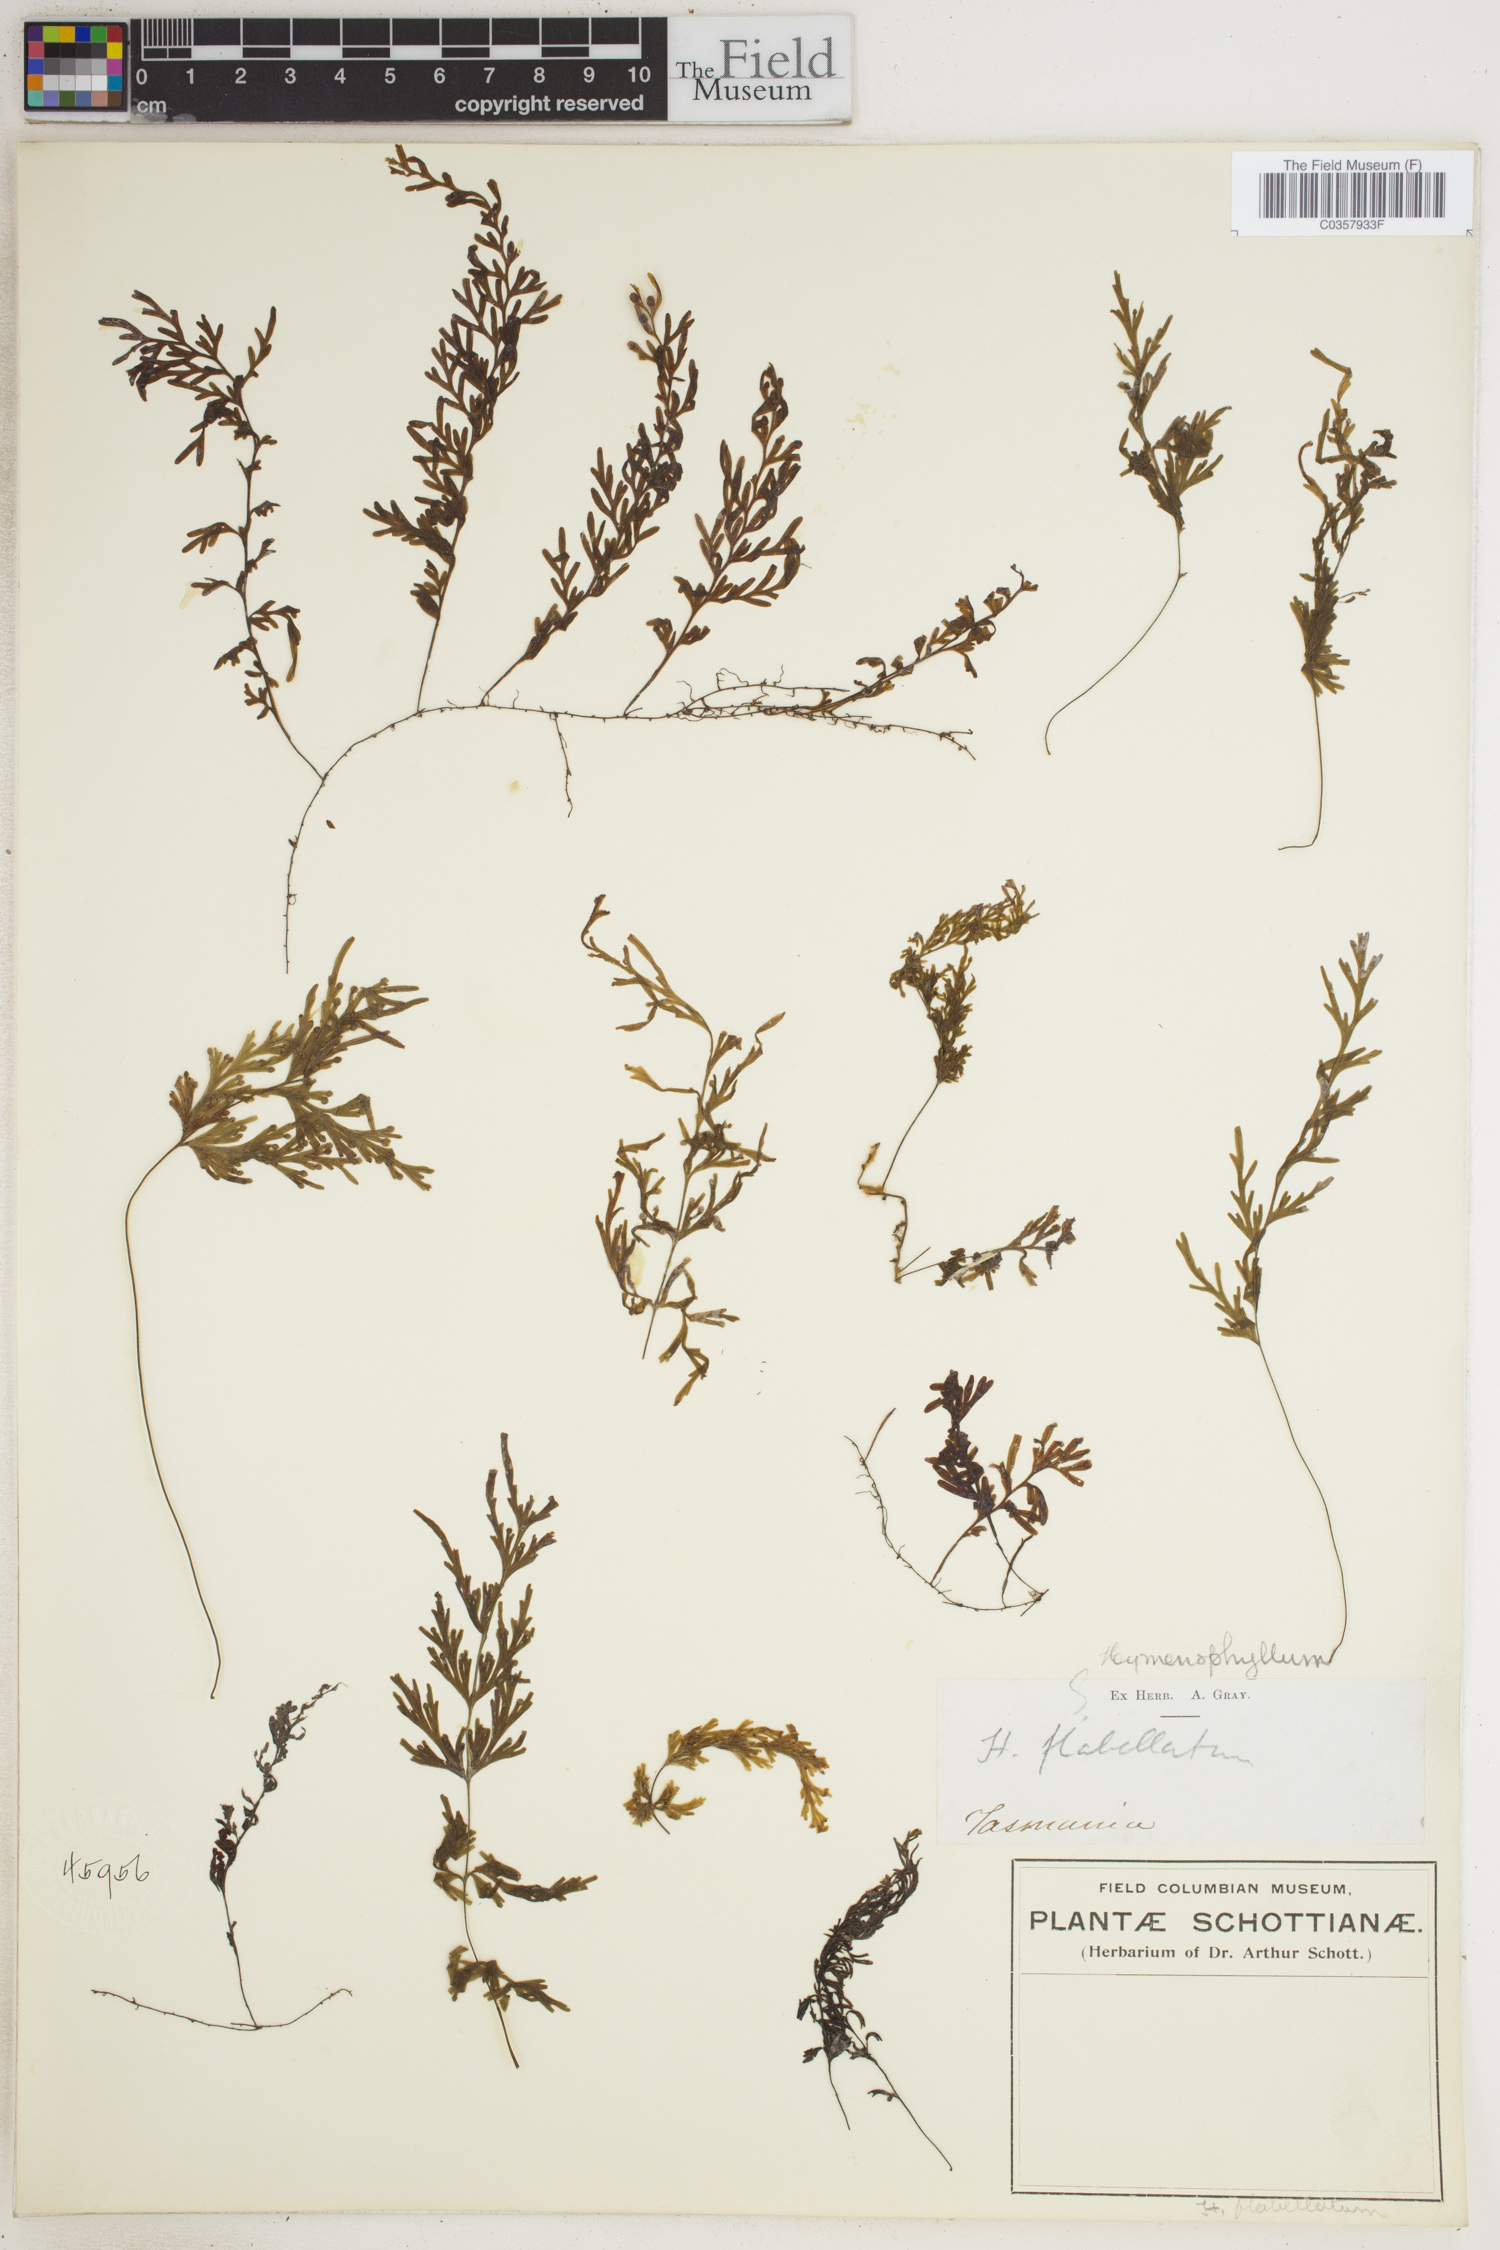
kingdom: Plantae
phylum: Tracheophyta
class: Polypodiopsida
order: Hymenophyllales
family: Hymenophyllaceae
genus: Hymenophyllum
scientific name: Hymenophyllum flabellatum
